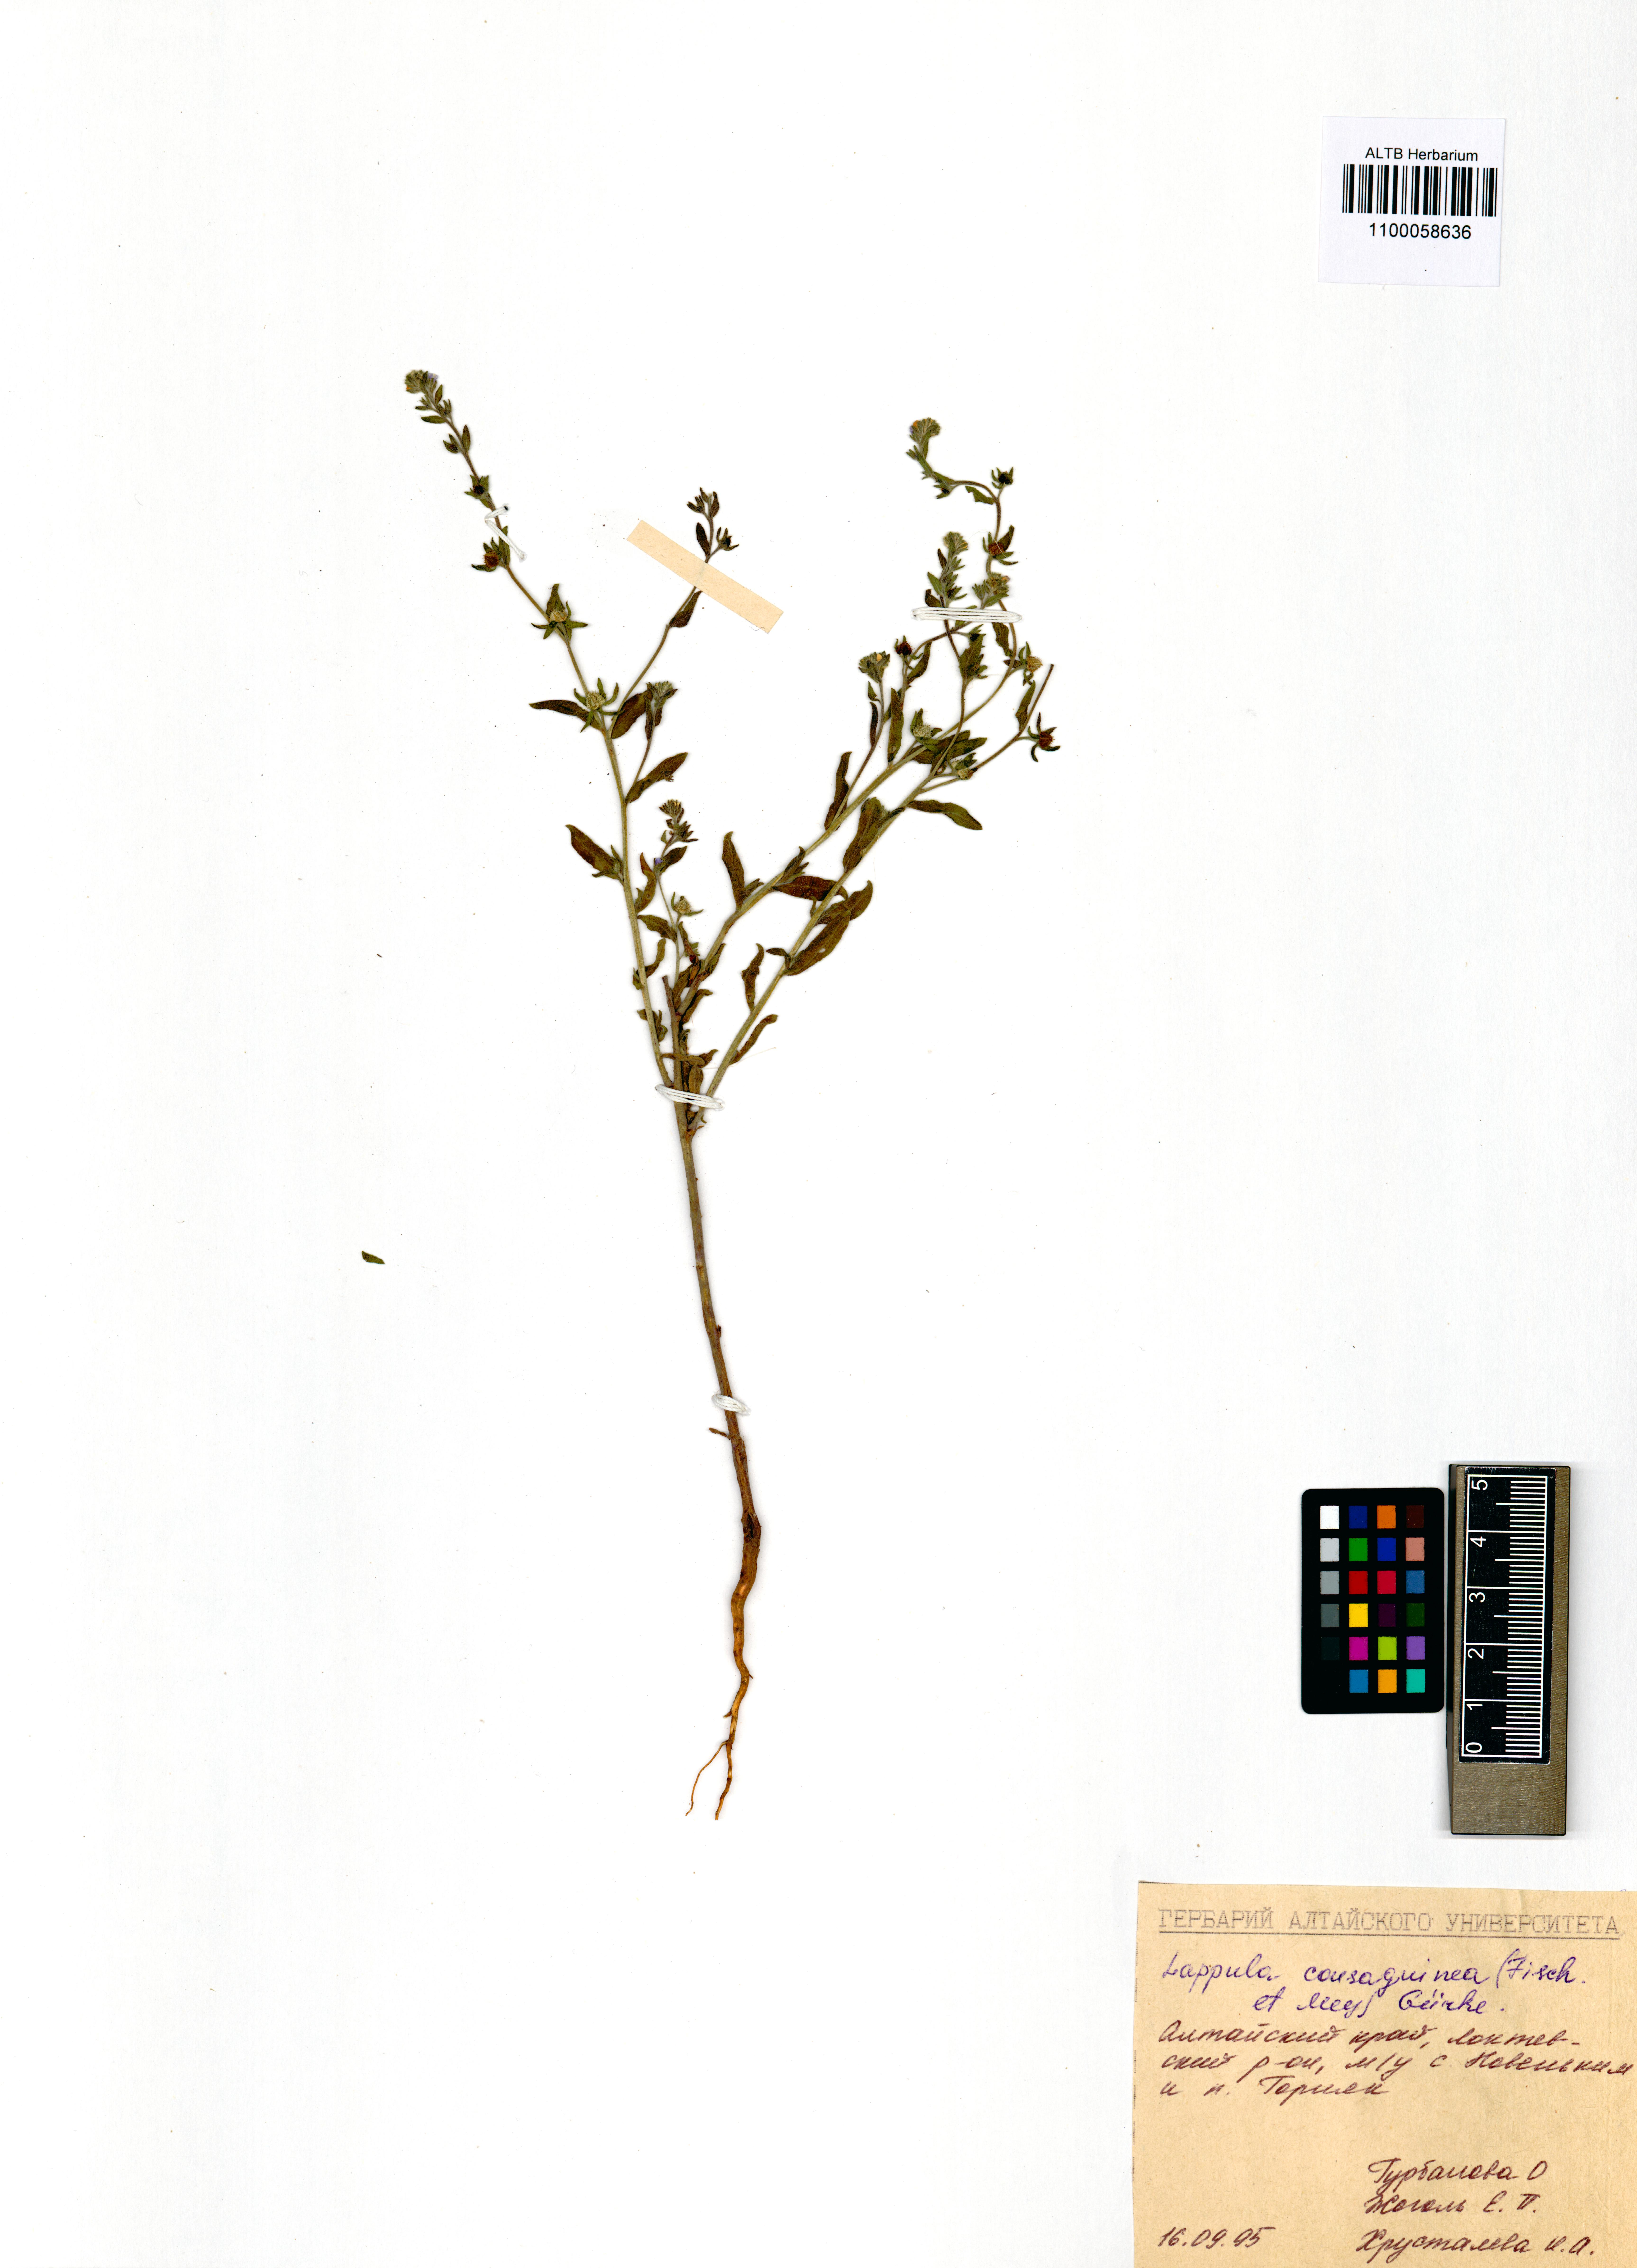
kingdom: Plantae
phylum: Tracheophyta
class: Magnoliopsida
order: Boraginales
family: Boraginaceae
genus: Lappula
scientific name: Lappula squarrosa
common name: European stickseed
